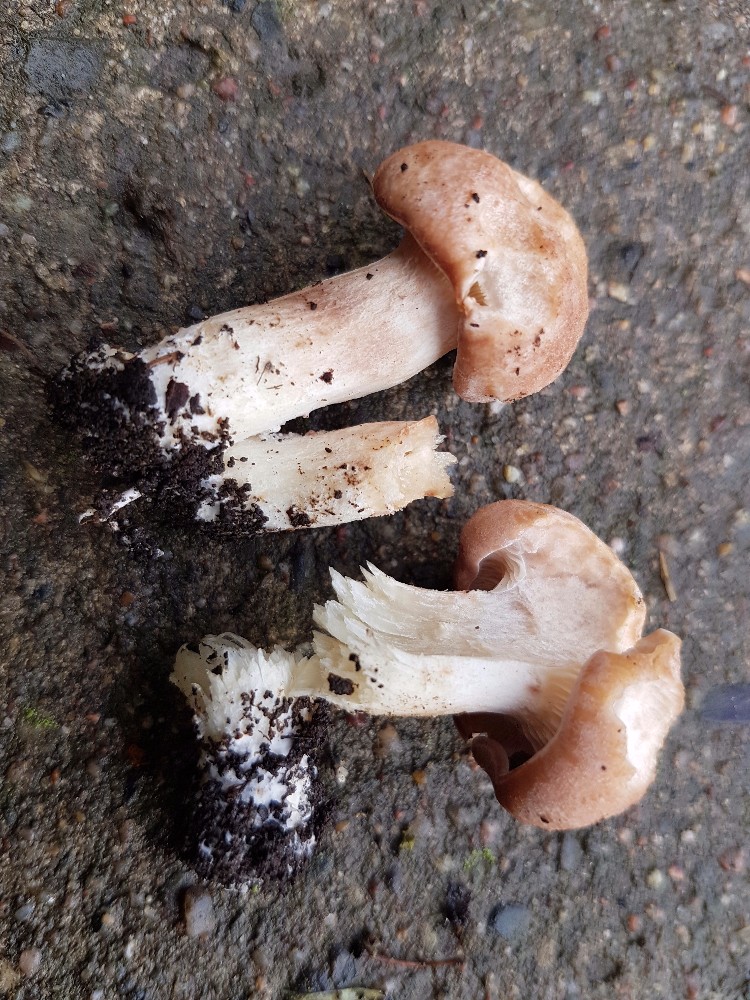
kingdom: Fungi
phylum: Basidiomycota
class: Agaricomycetes
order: Agaricales
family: Entolomataceae
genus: Clitopilus
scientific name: Clitopilus geminus
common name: kødfarvet troldhat
